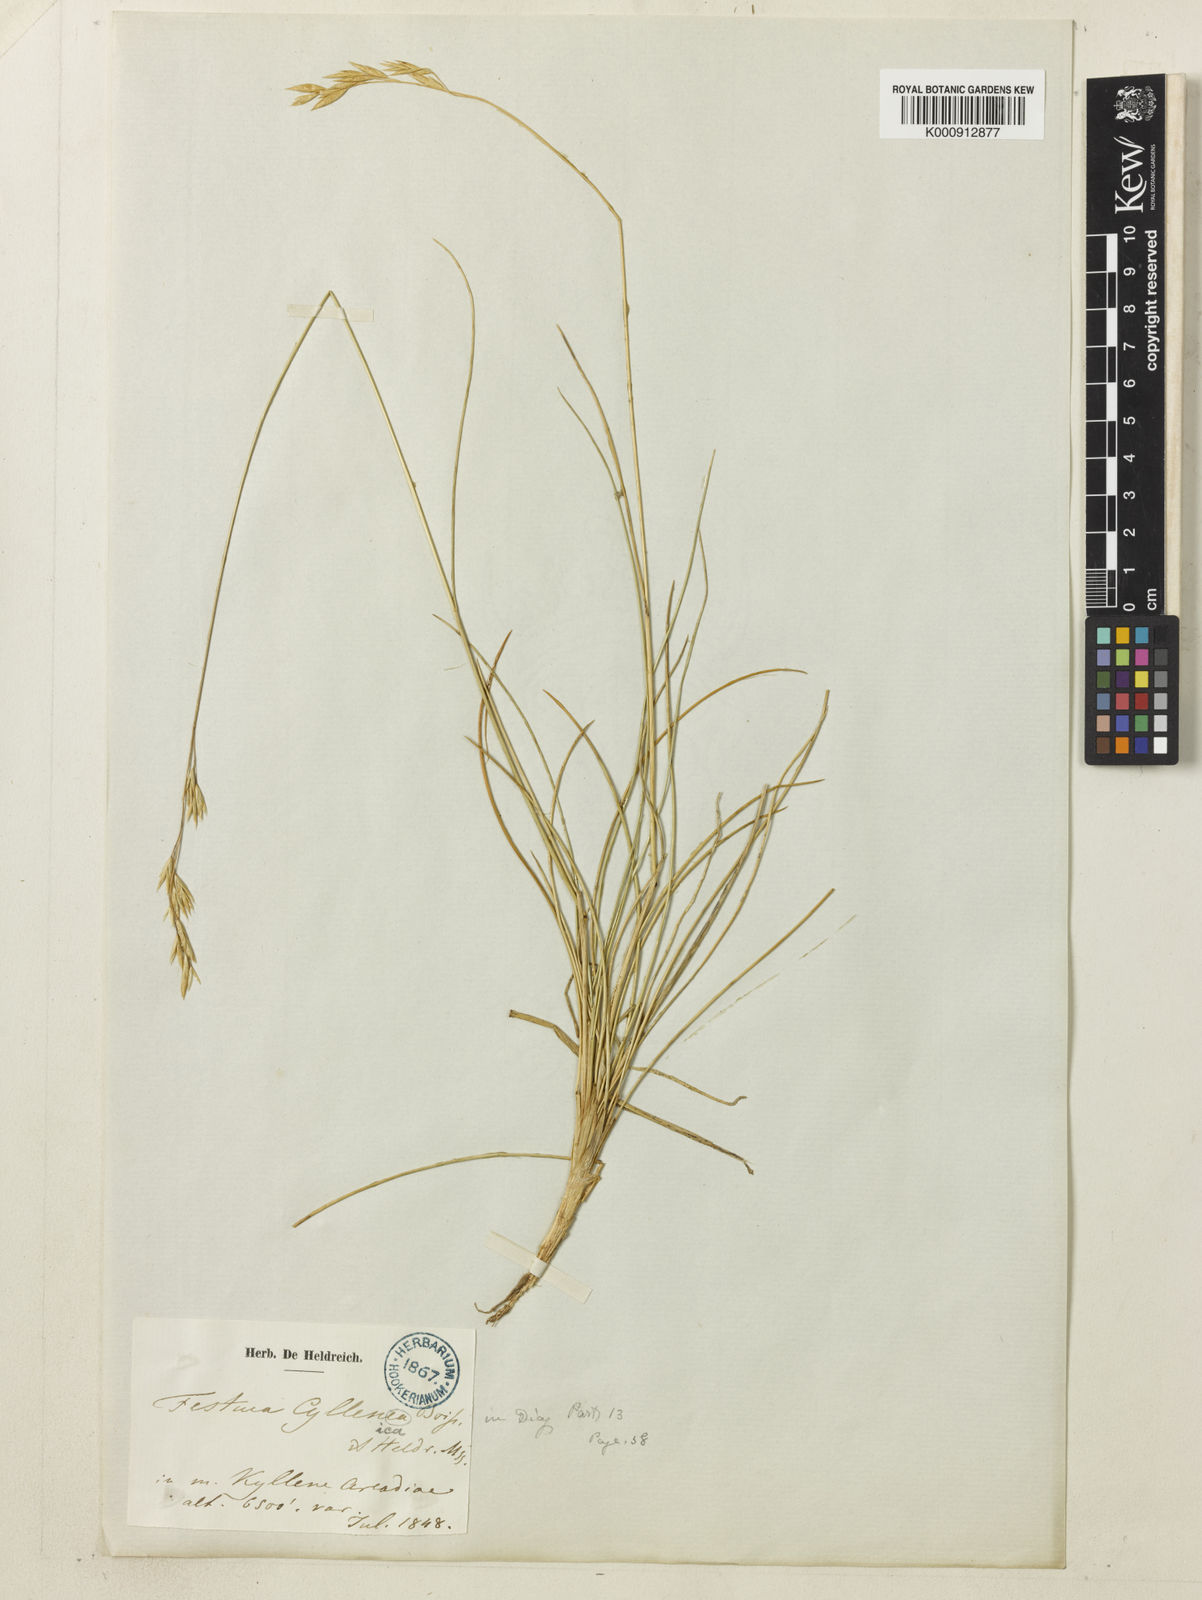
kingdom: Plantae
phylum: Tracheophyta
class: Liliopsida
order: Poales
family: Poaceae
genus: Festuca
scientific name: Festuca cyllenica
